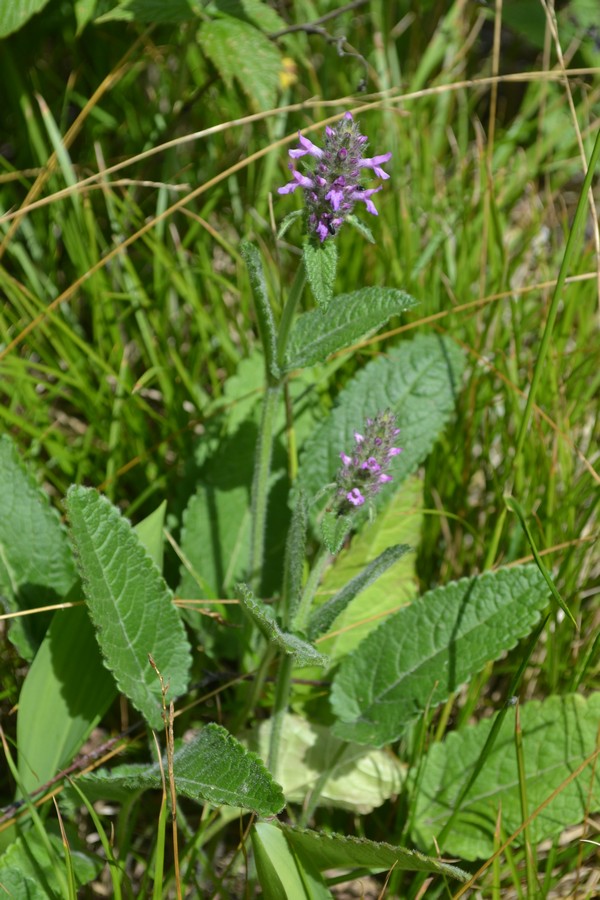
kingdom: Plantae
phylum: Tracheophyta
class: Magnoliopsida
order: Lamiales
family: Lamiaceae
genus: Betonica
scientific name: Betonica officinalis
